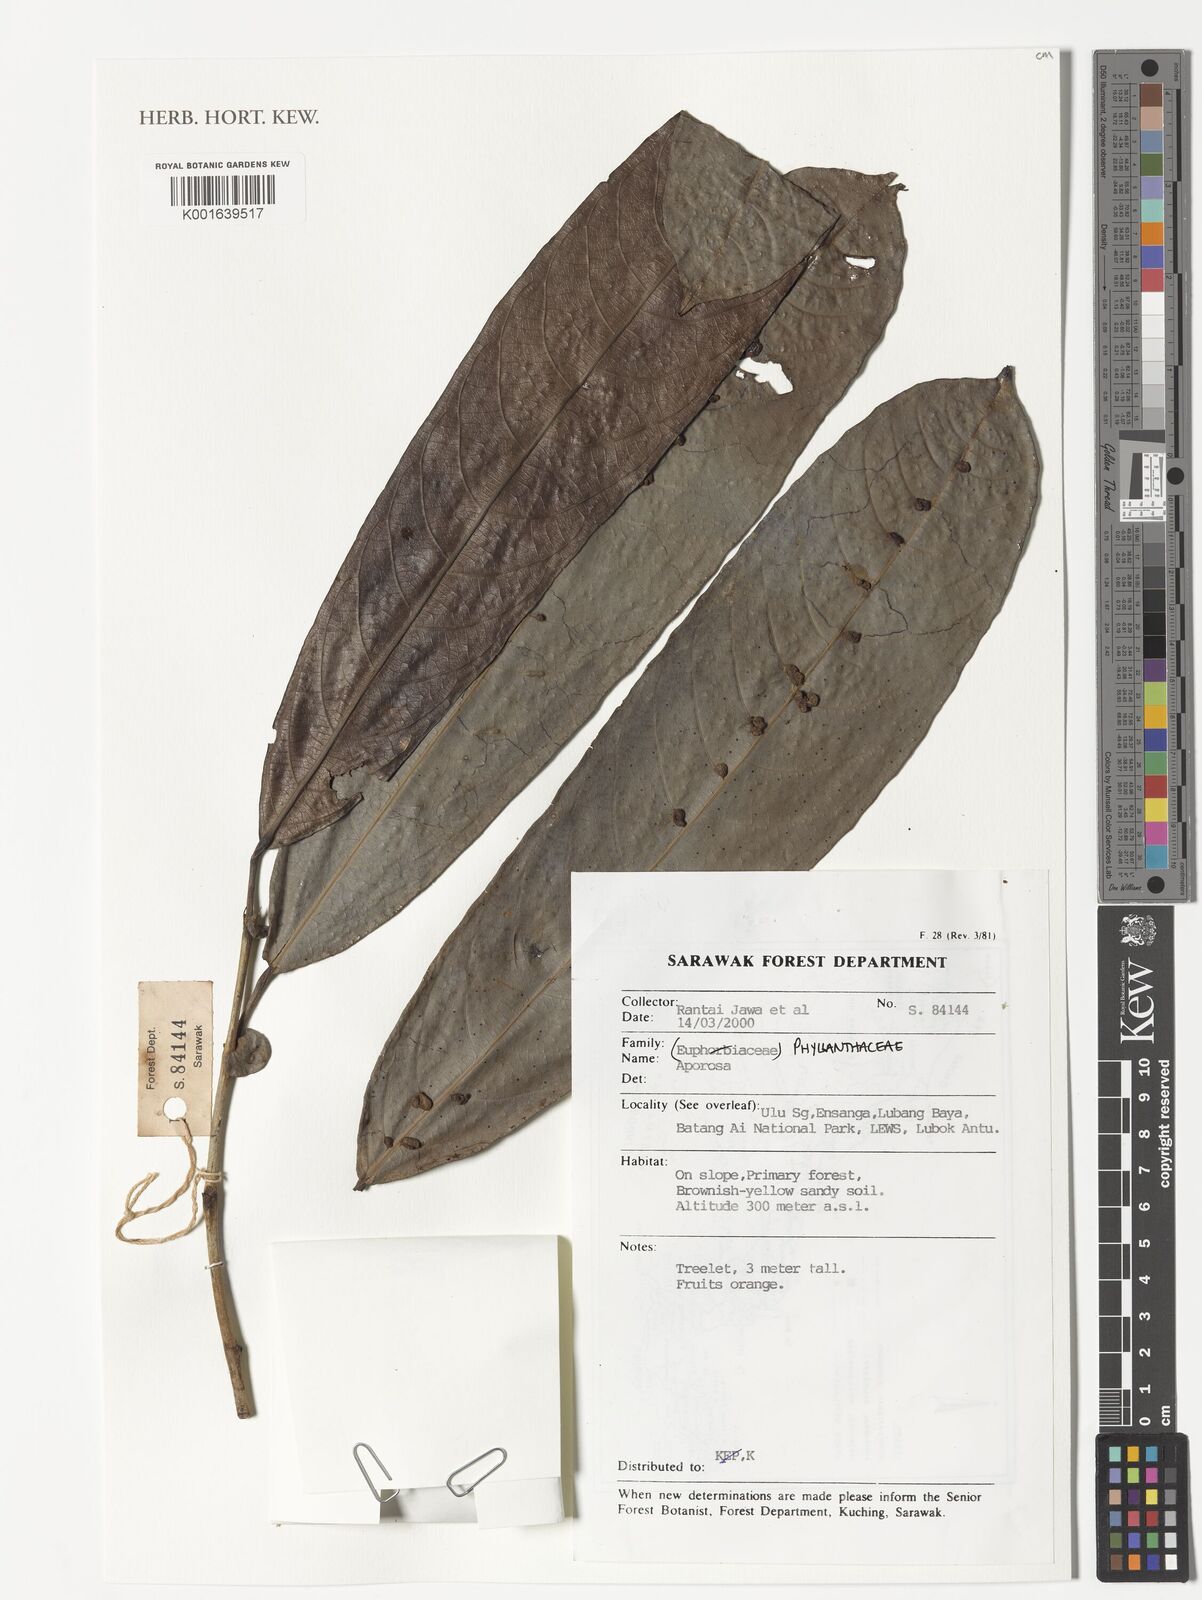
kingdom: Plantae
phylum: Tracheophyta
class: Magnoliopsida
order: Malpighiales
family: Phyllanthaceae
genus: Aporosa
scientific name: Aporosa
